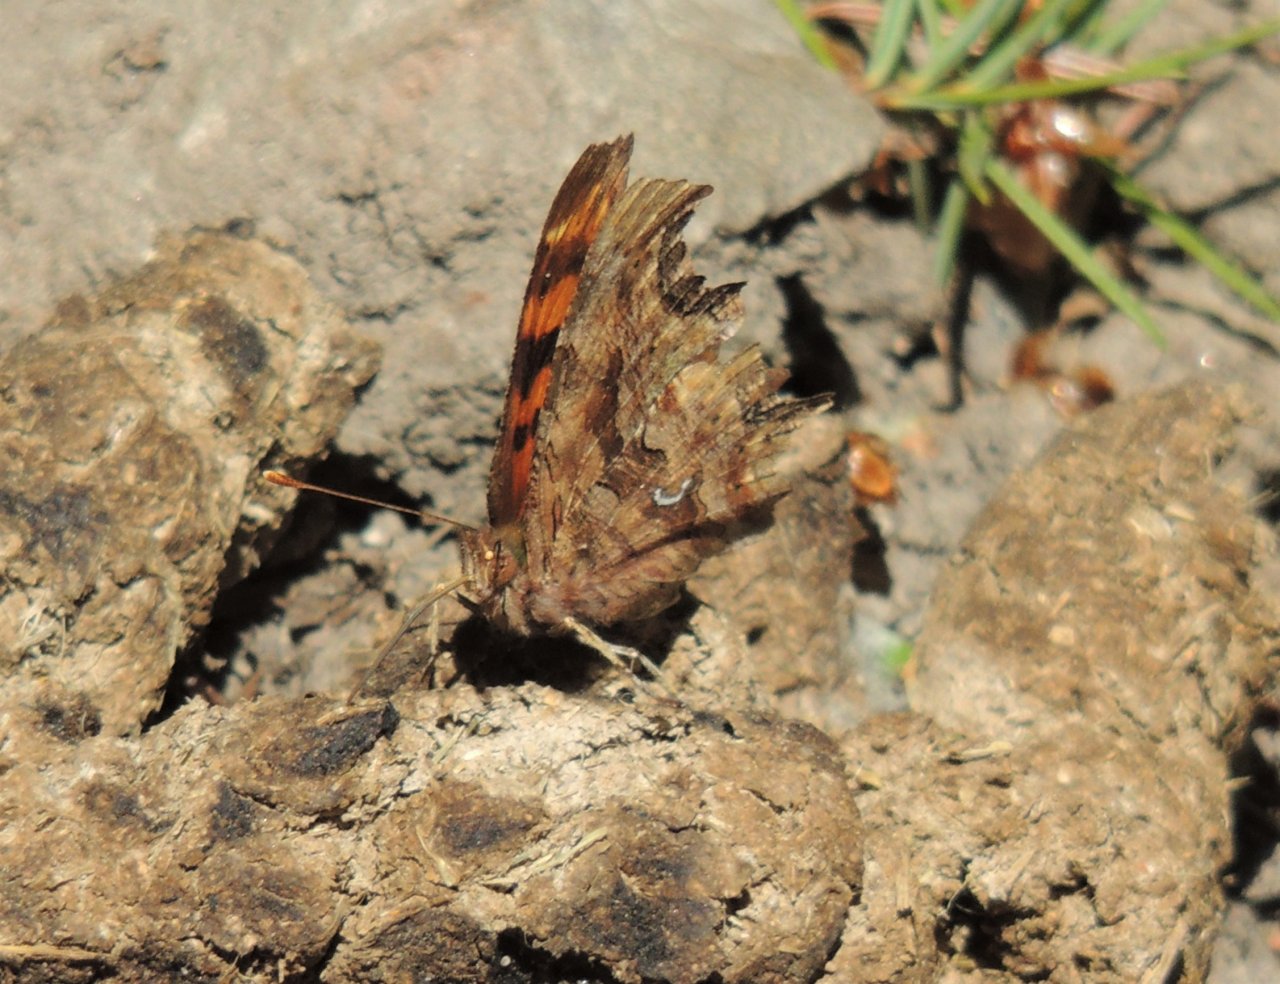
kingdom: Animalia
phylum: Arthropoda
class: Insecta
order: Lepidoptera
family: Nymphalidae
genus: Polygonia
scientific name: Polygonia satyrus
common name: Satyr Comma
